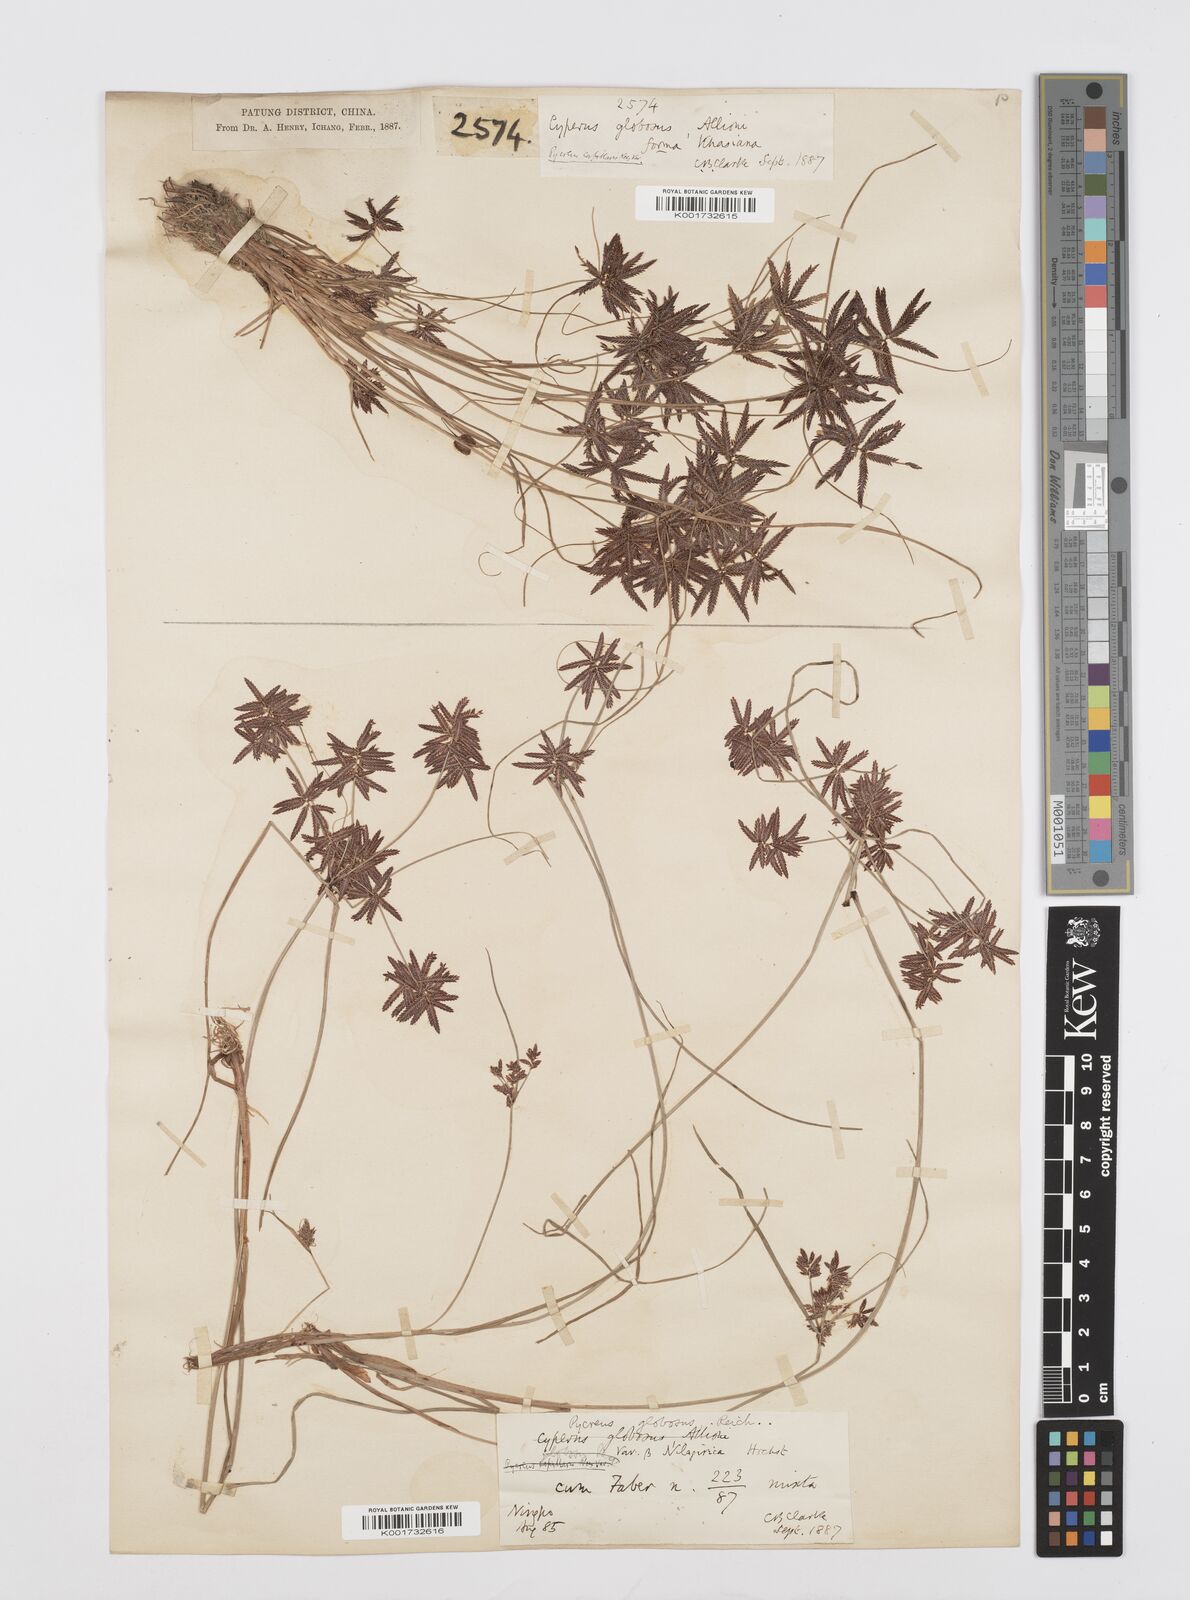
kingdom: Plantae
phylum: Tracheophyta
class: Liliopsida
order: Poales
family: Cyperaceae
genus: Cyperus
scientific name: Cyperus flavidus
